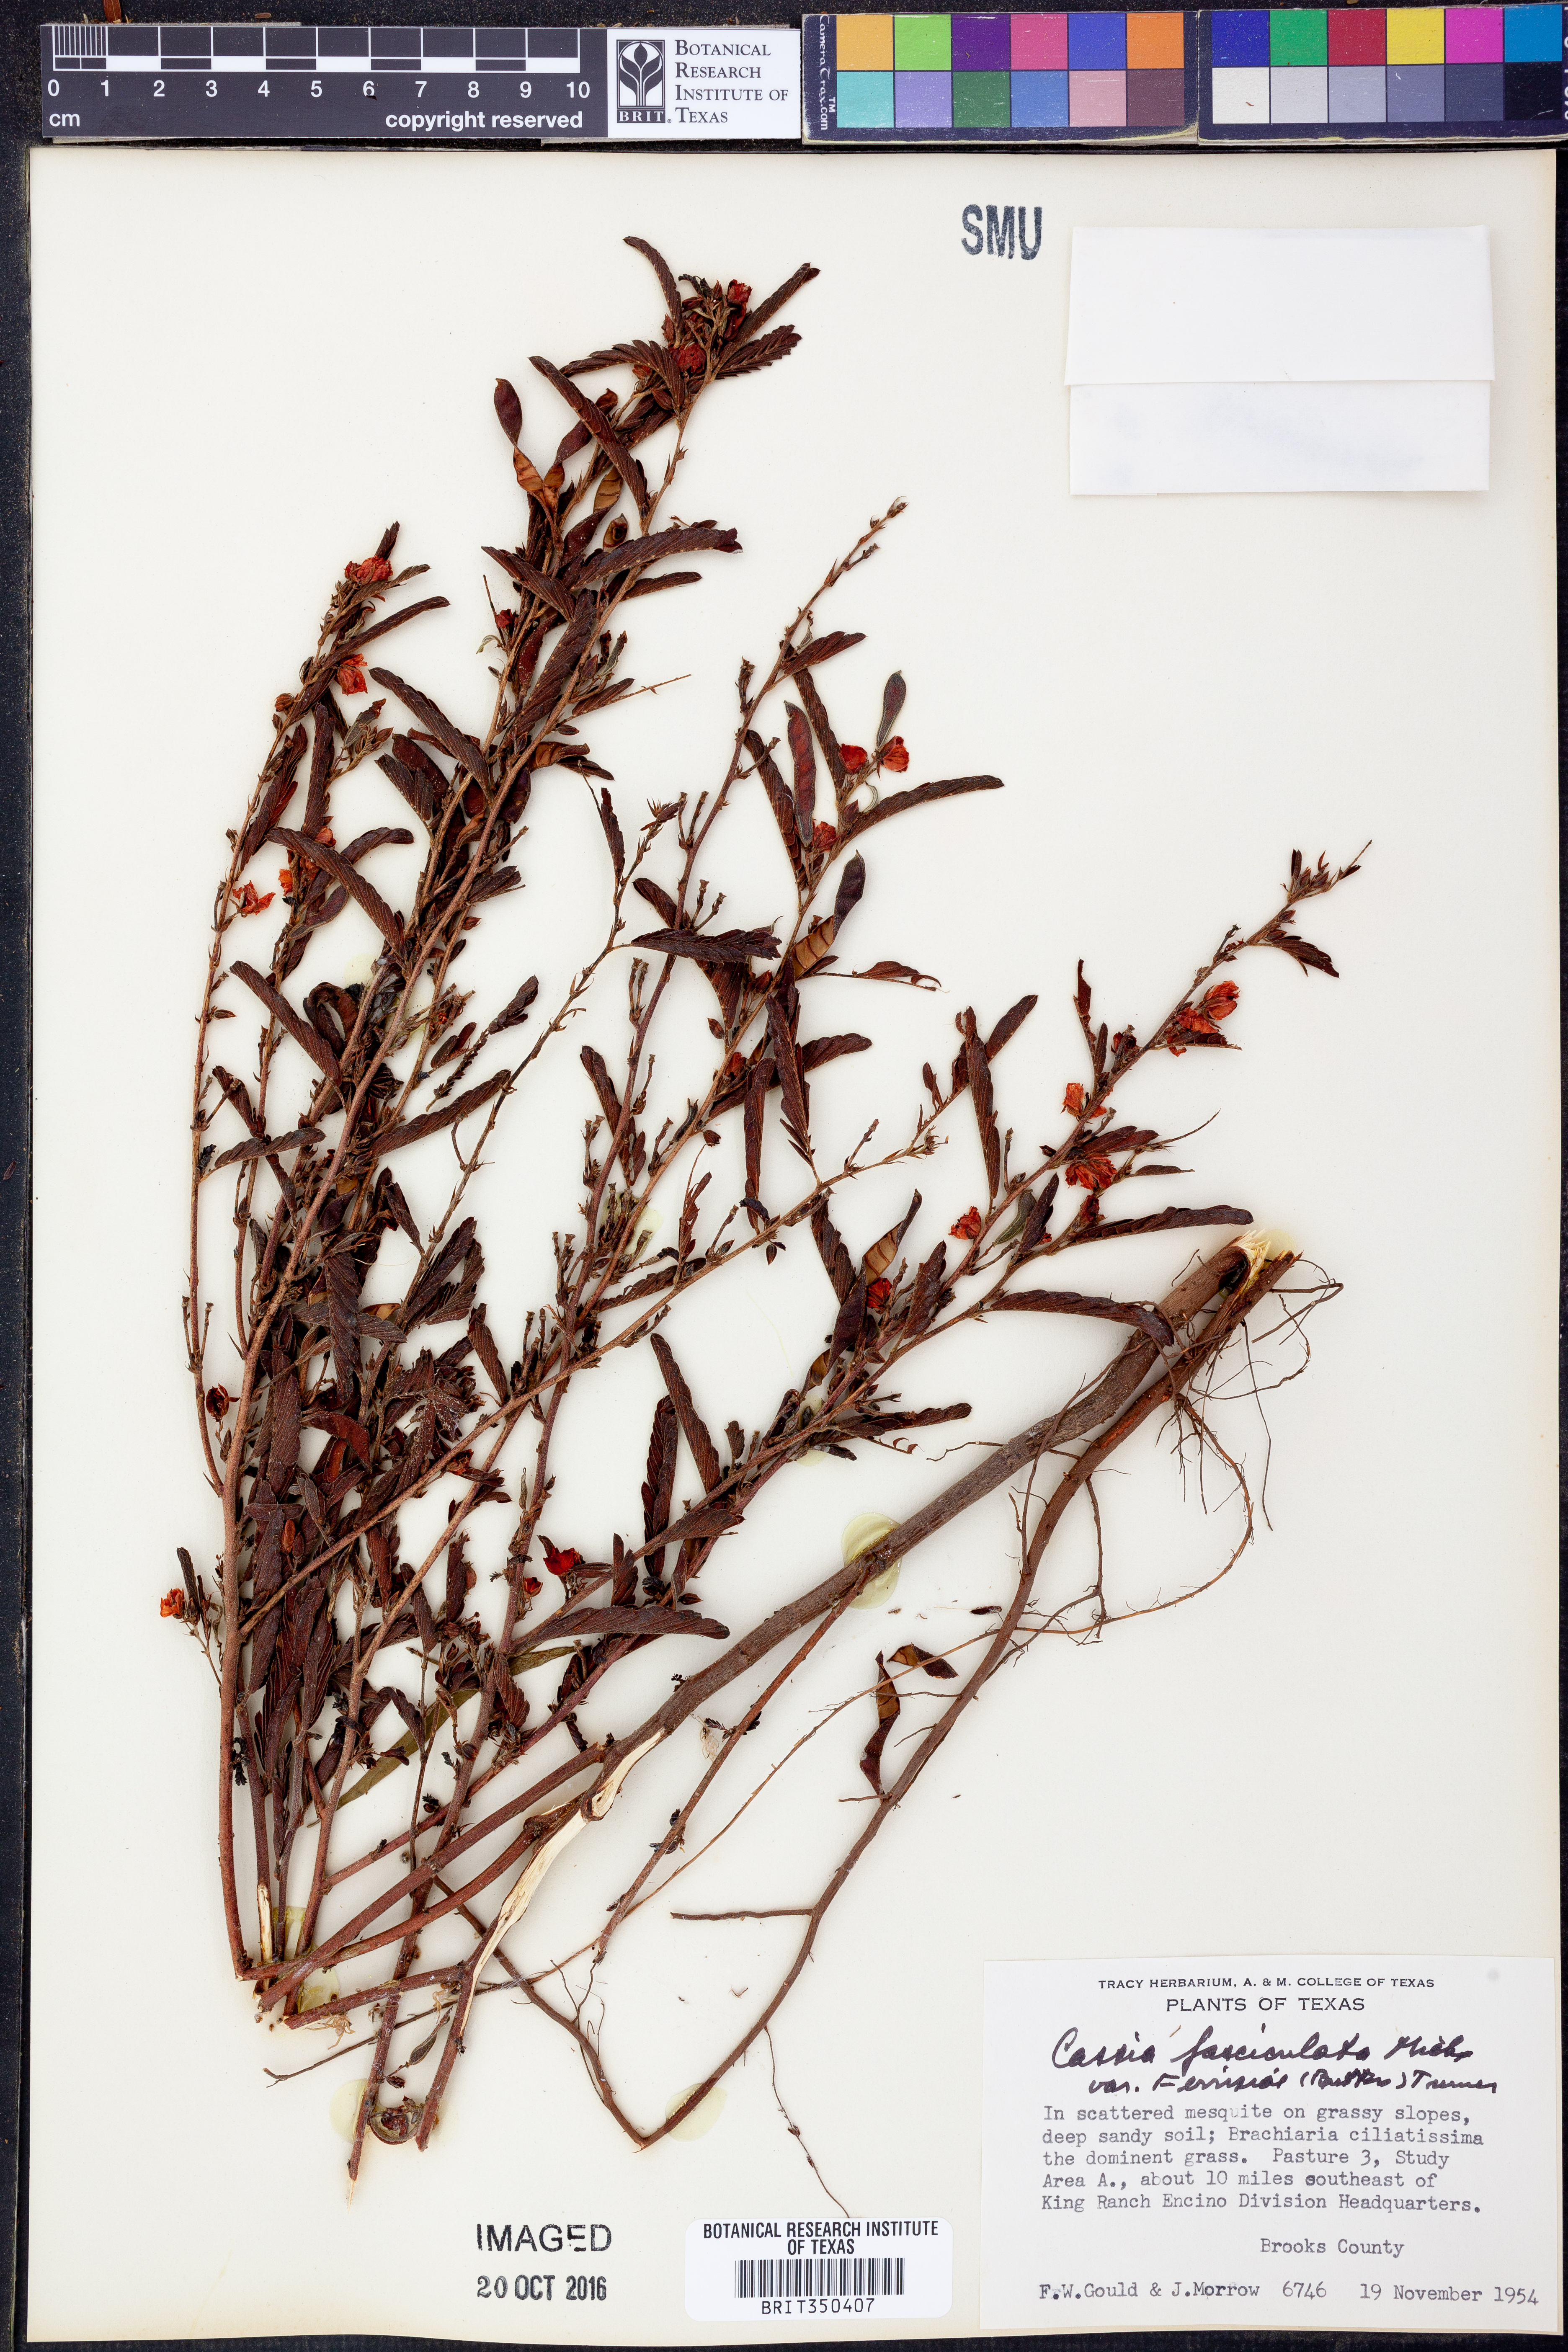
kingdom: Plantae
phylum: Tracheophyta
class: Magnoliopsida
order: Fabales
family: Fabaceae
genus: Chamaecrista
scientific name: Chamaecrista fasciculata
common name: Golden cassia
